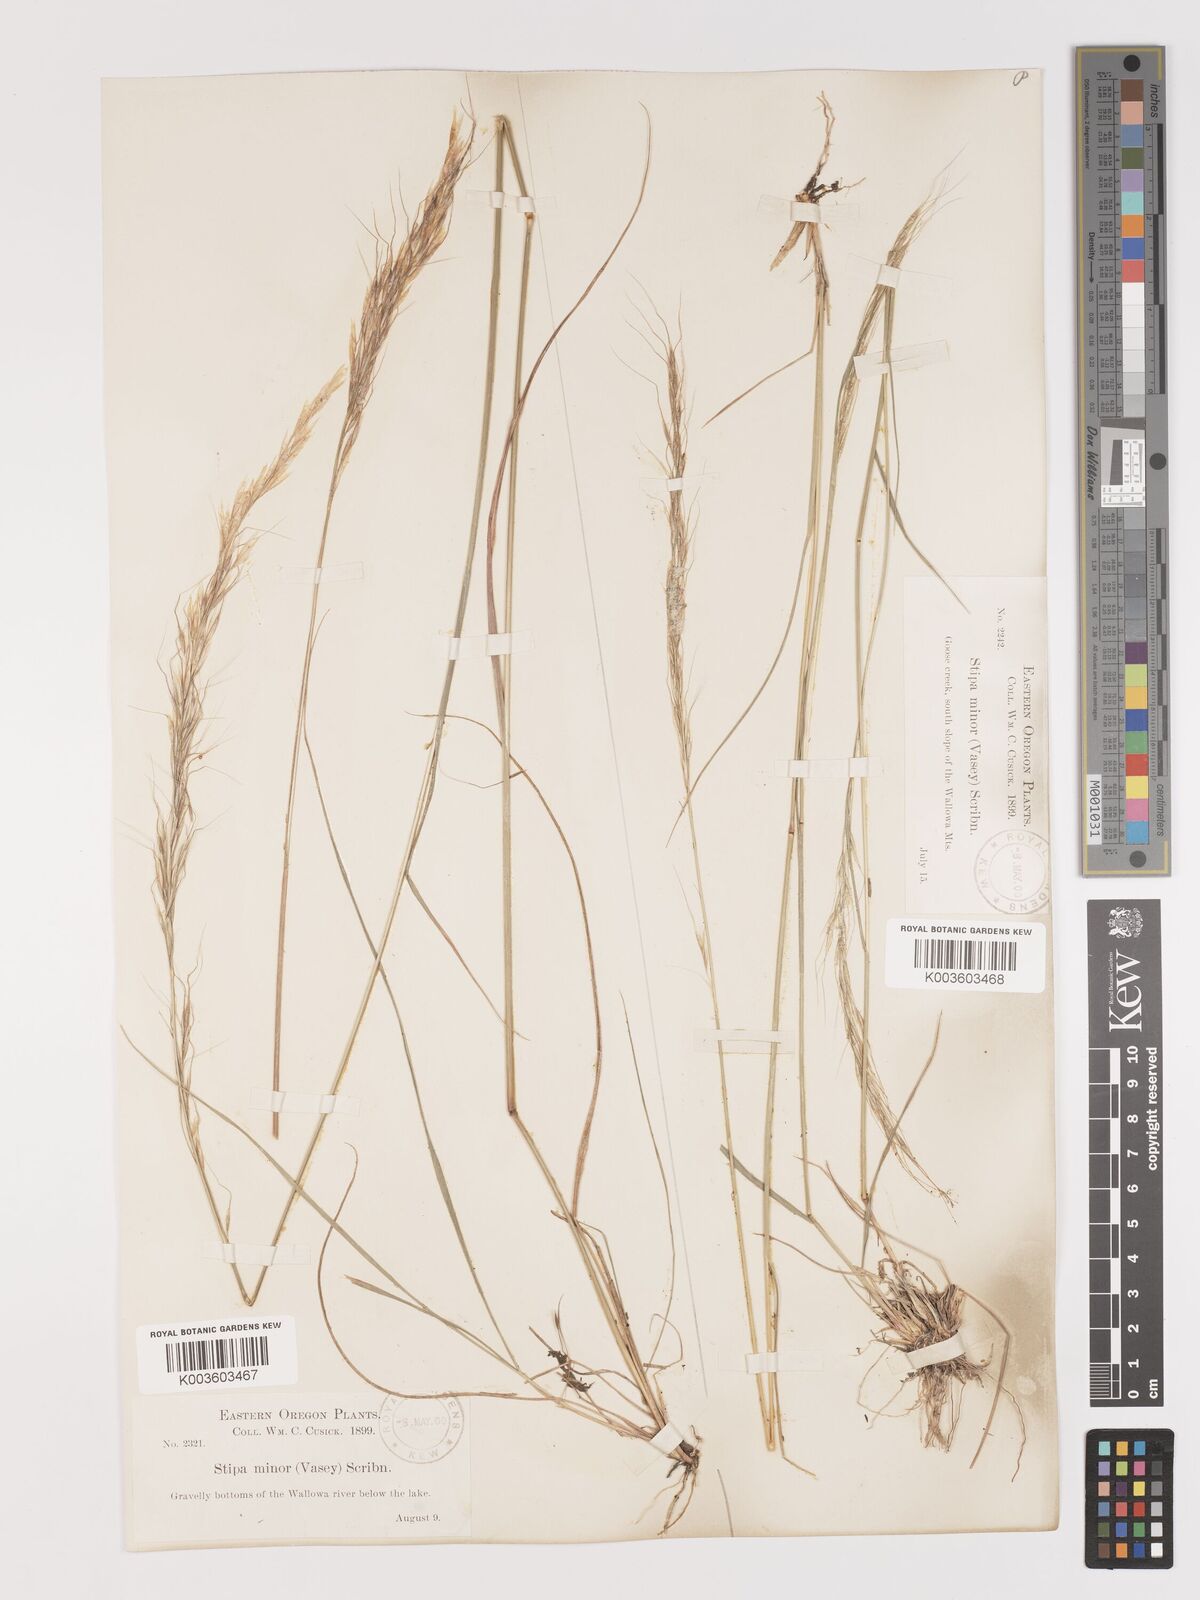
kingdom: Plantae
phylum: Tracheophyta
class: Liliopsida
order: Poales
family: Poaceae
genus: Eriocoma
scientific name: Eriocoma nelsonii
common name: Nelson's needlegrass
